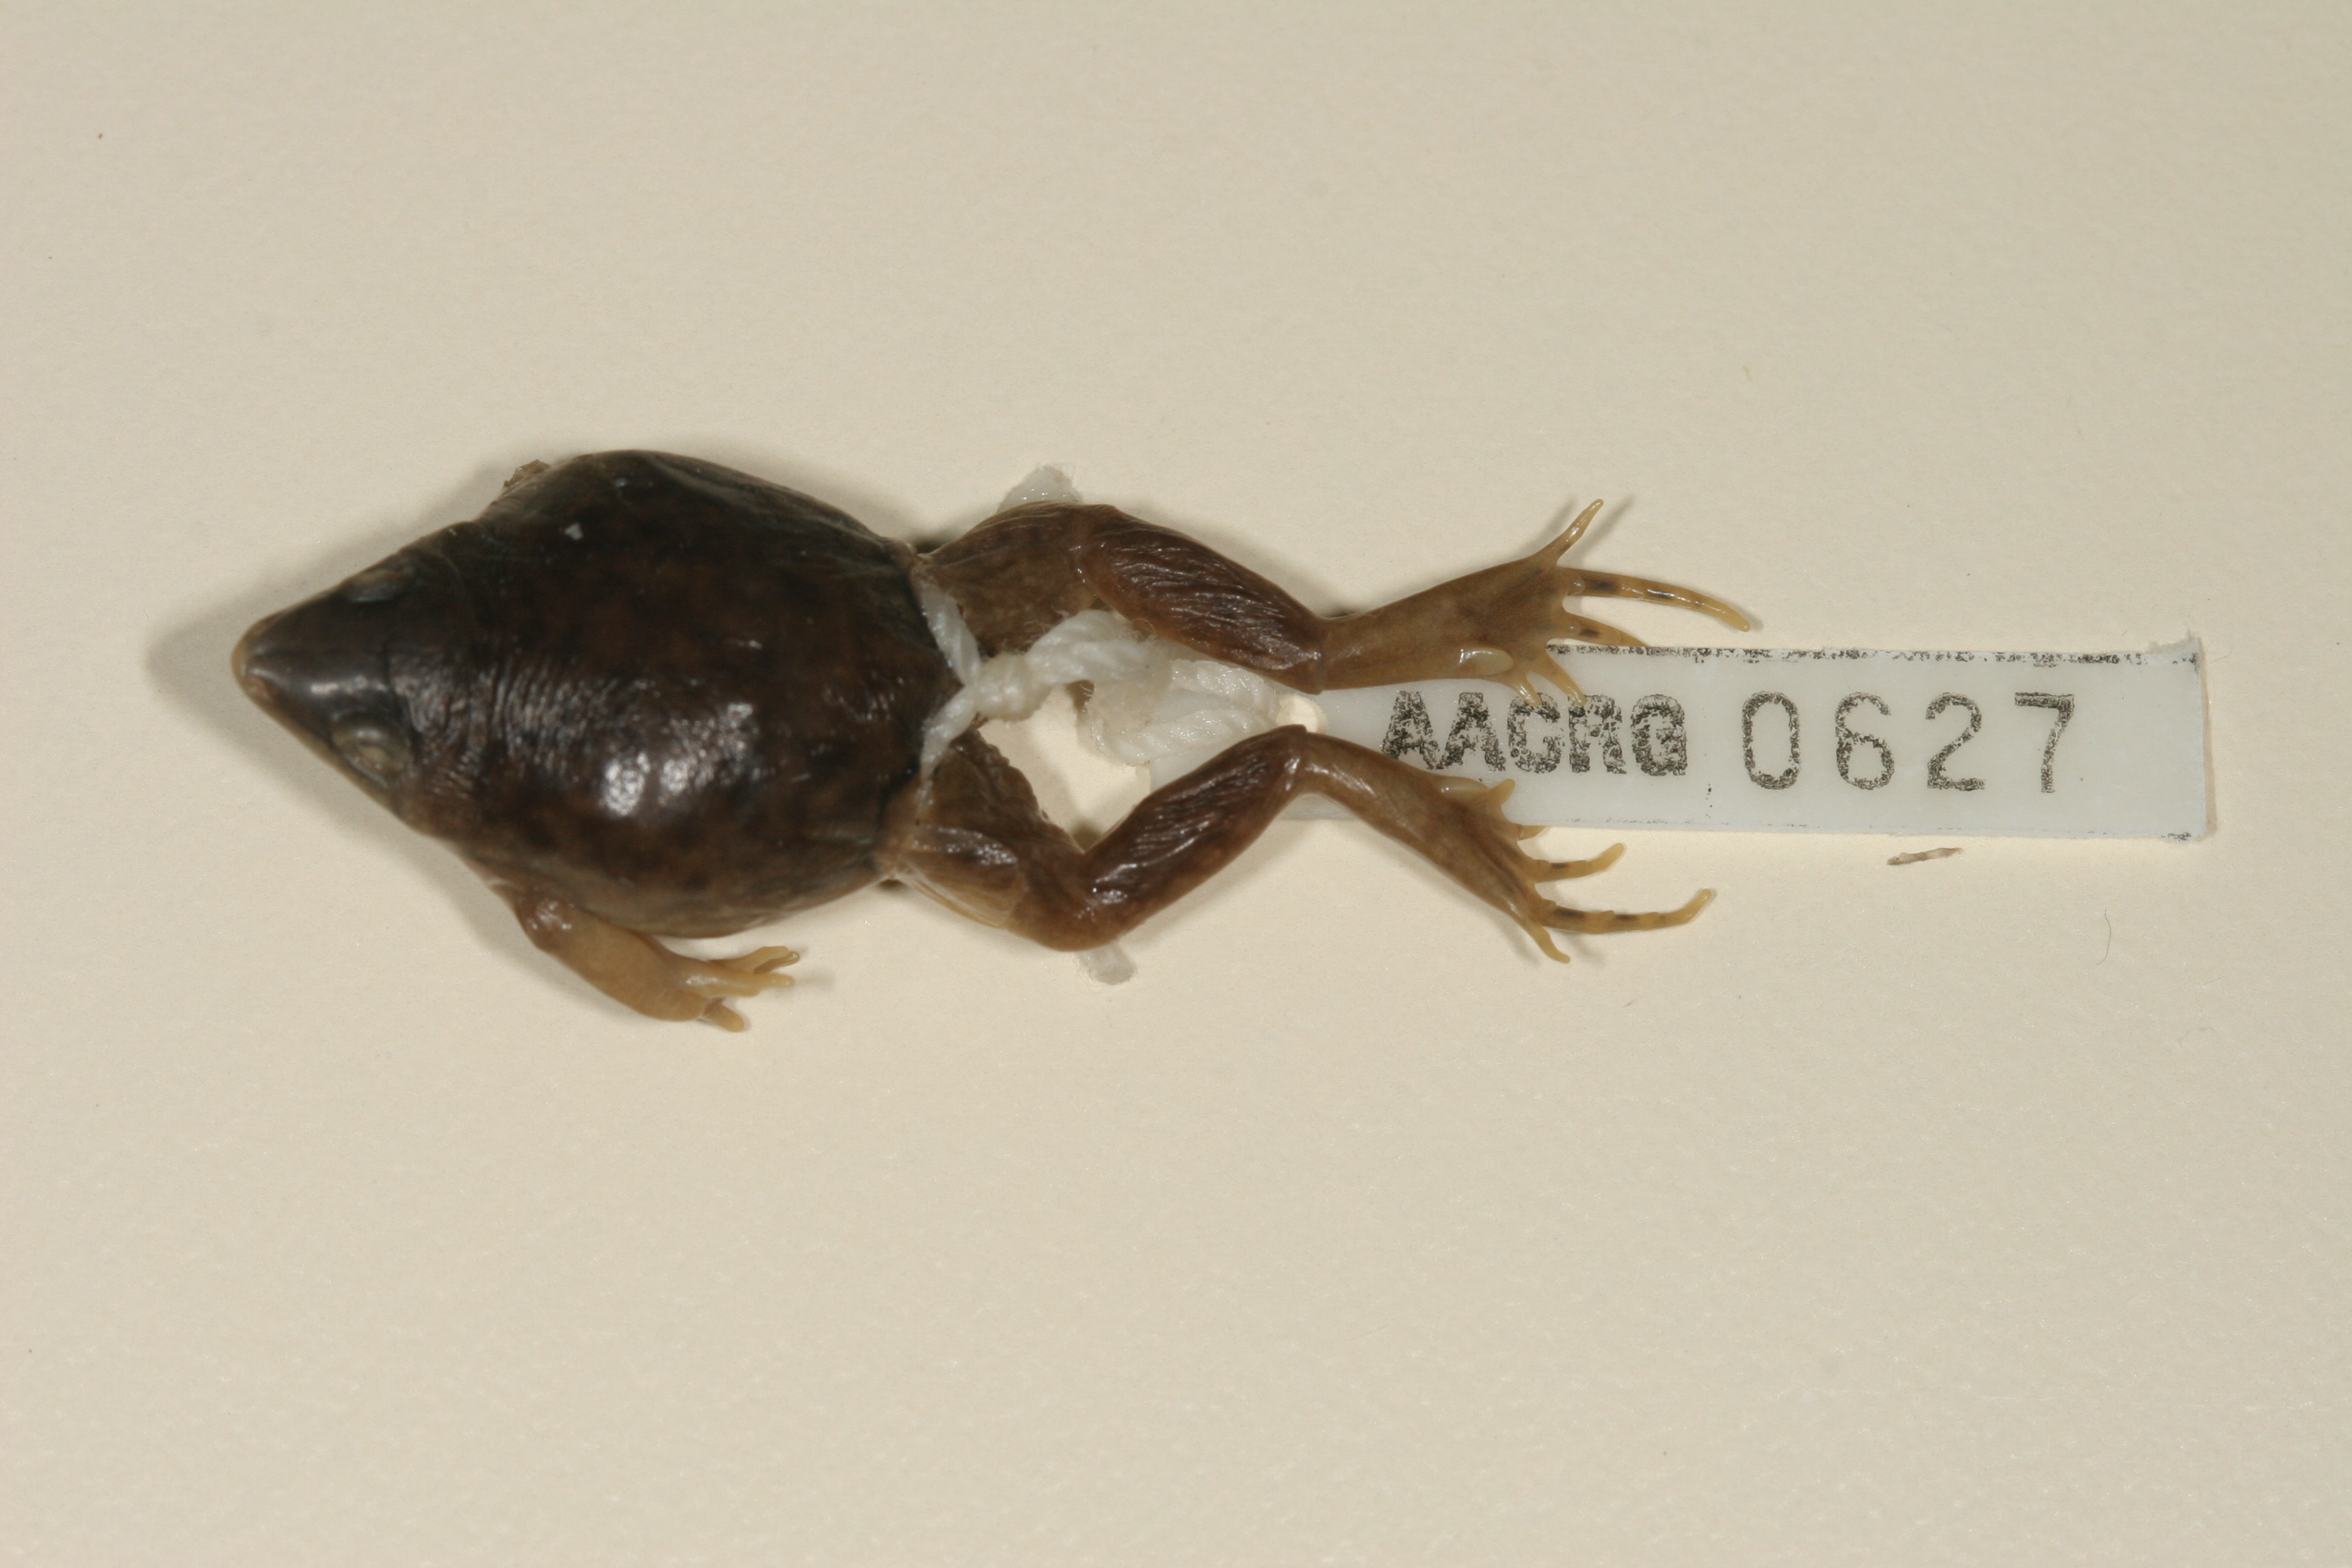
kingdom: Animalia
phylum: Chordata
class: Amphibia
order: Anura
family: Hemisotidae
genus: Hemisus
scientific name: Hemisus marmoratus
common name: Mottled shovel-nosed frog
